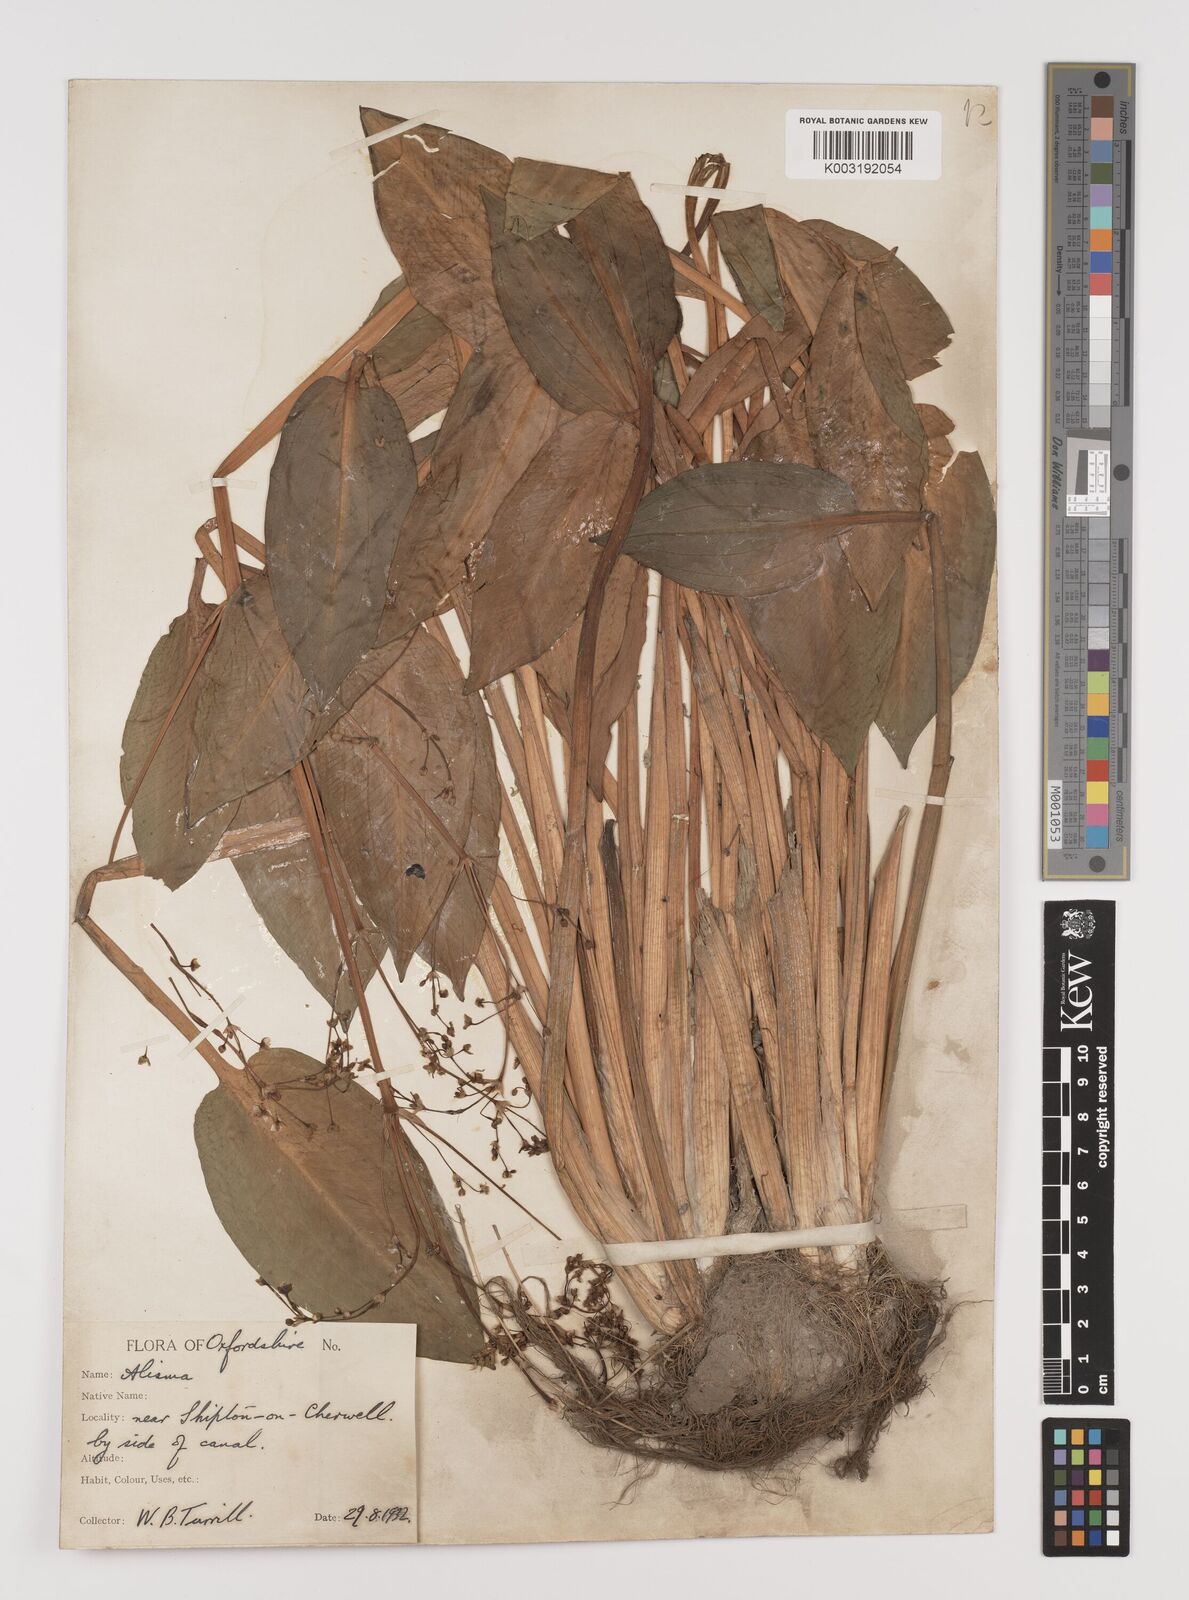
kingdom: Plantae
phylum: Tracheophyta
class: Liliopsida
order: Alismatales
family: Alismataceae
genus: Alisma
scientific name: Alisma plantago-aquatica
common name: Water-plantain
